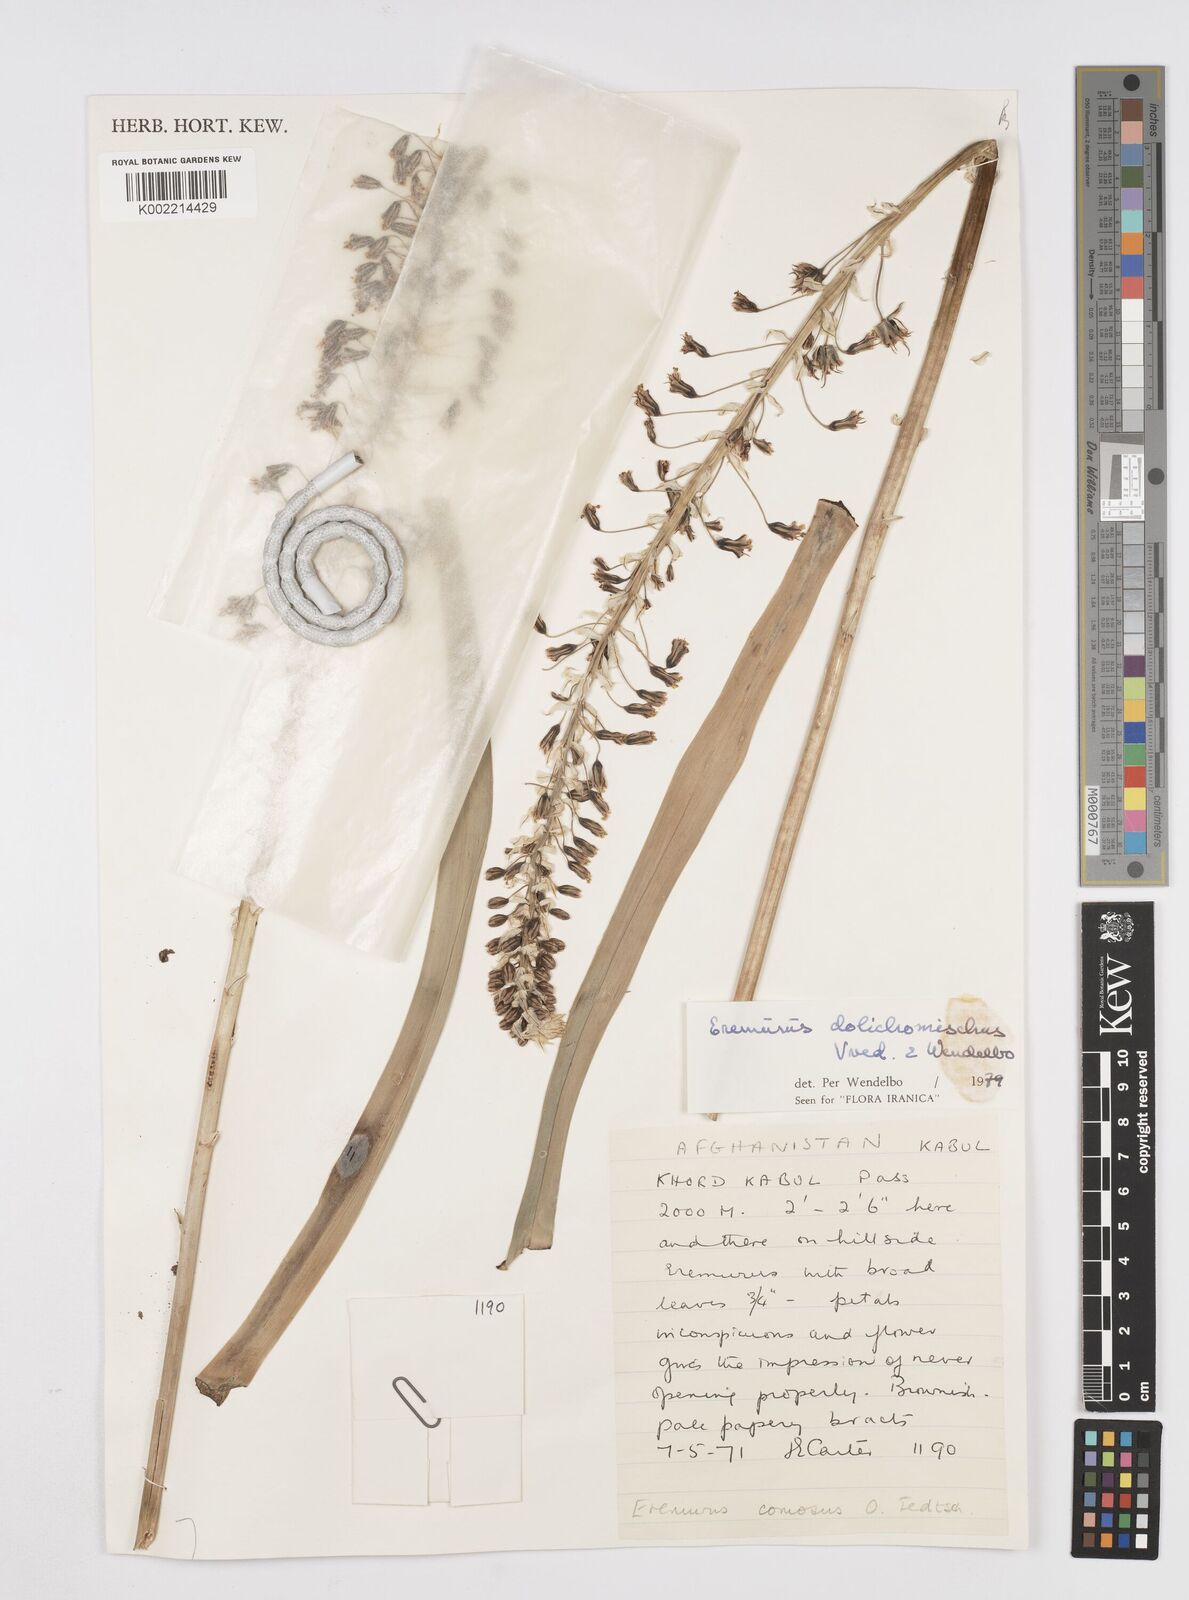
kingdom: Plantae
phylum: Tracheophyta
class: Liliopsida
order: Asparagales
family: Asphodelaceae
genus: Eremurus
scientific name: Eremurus dolichomischus
